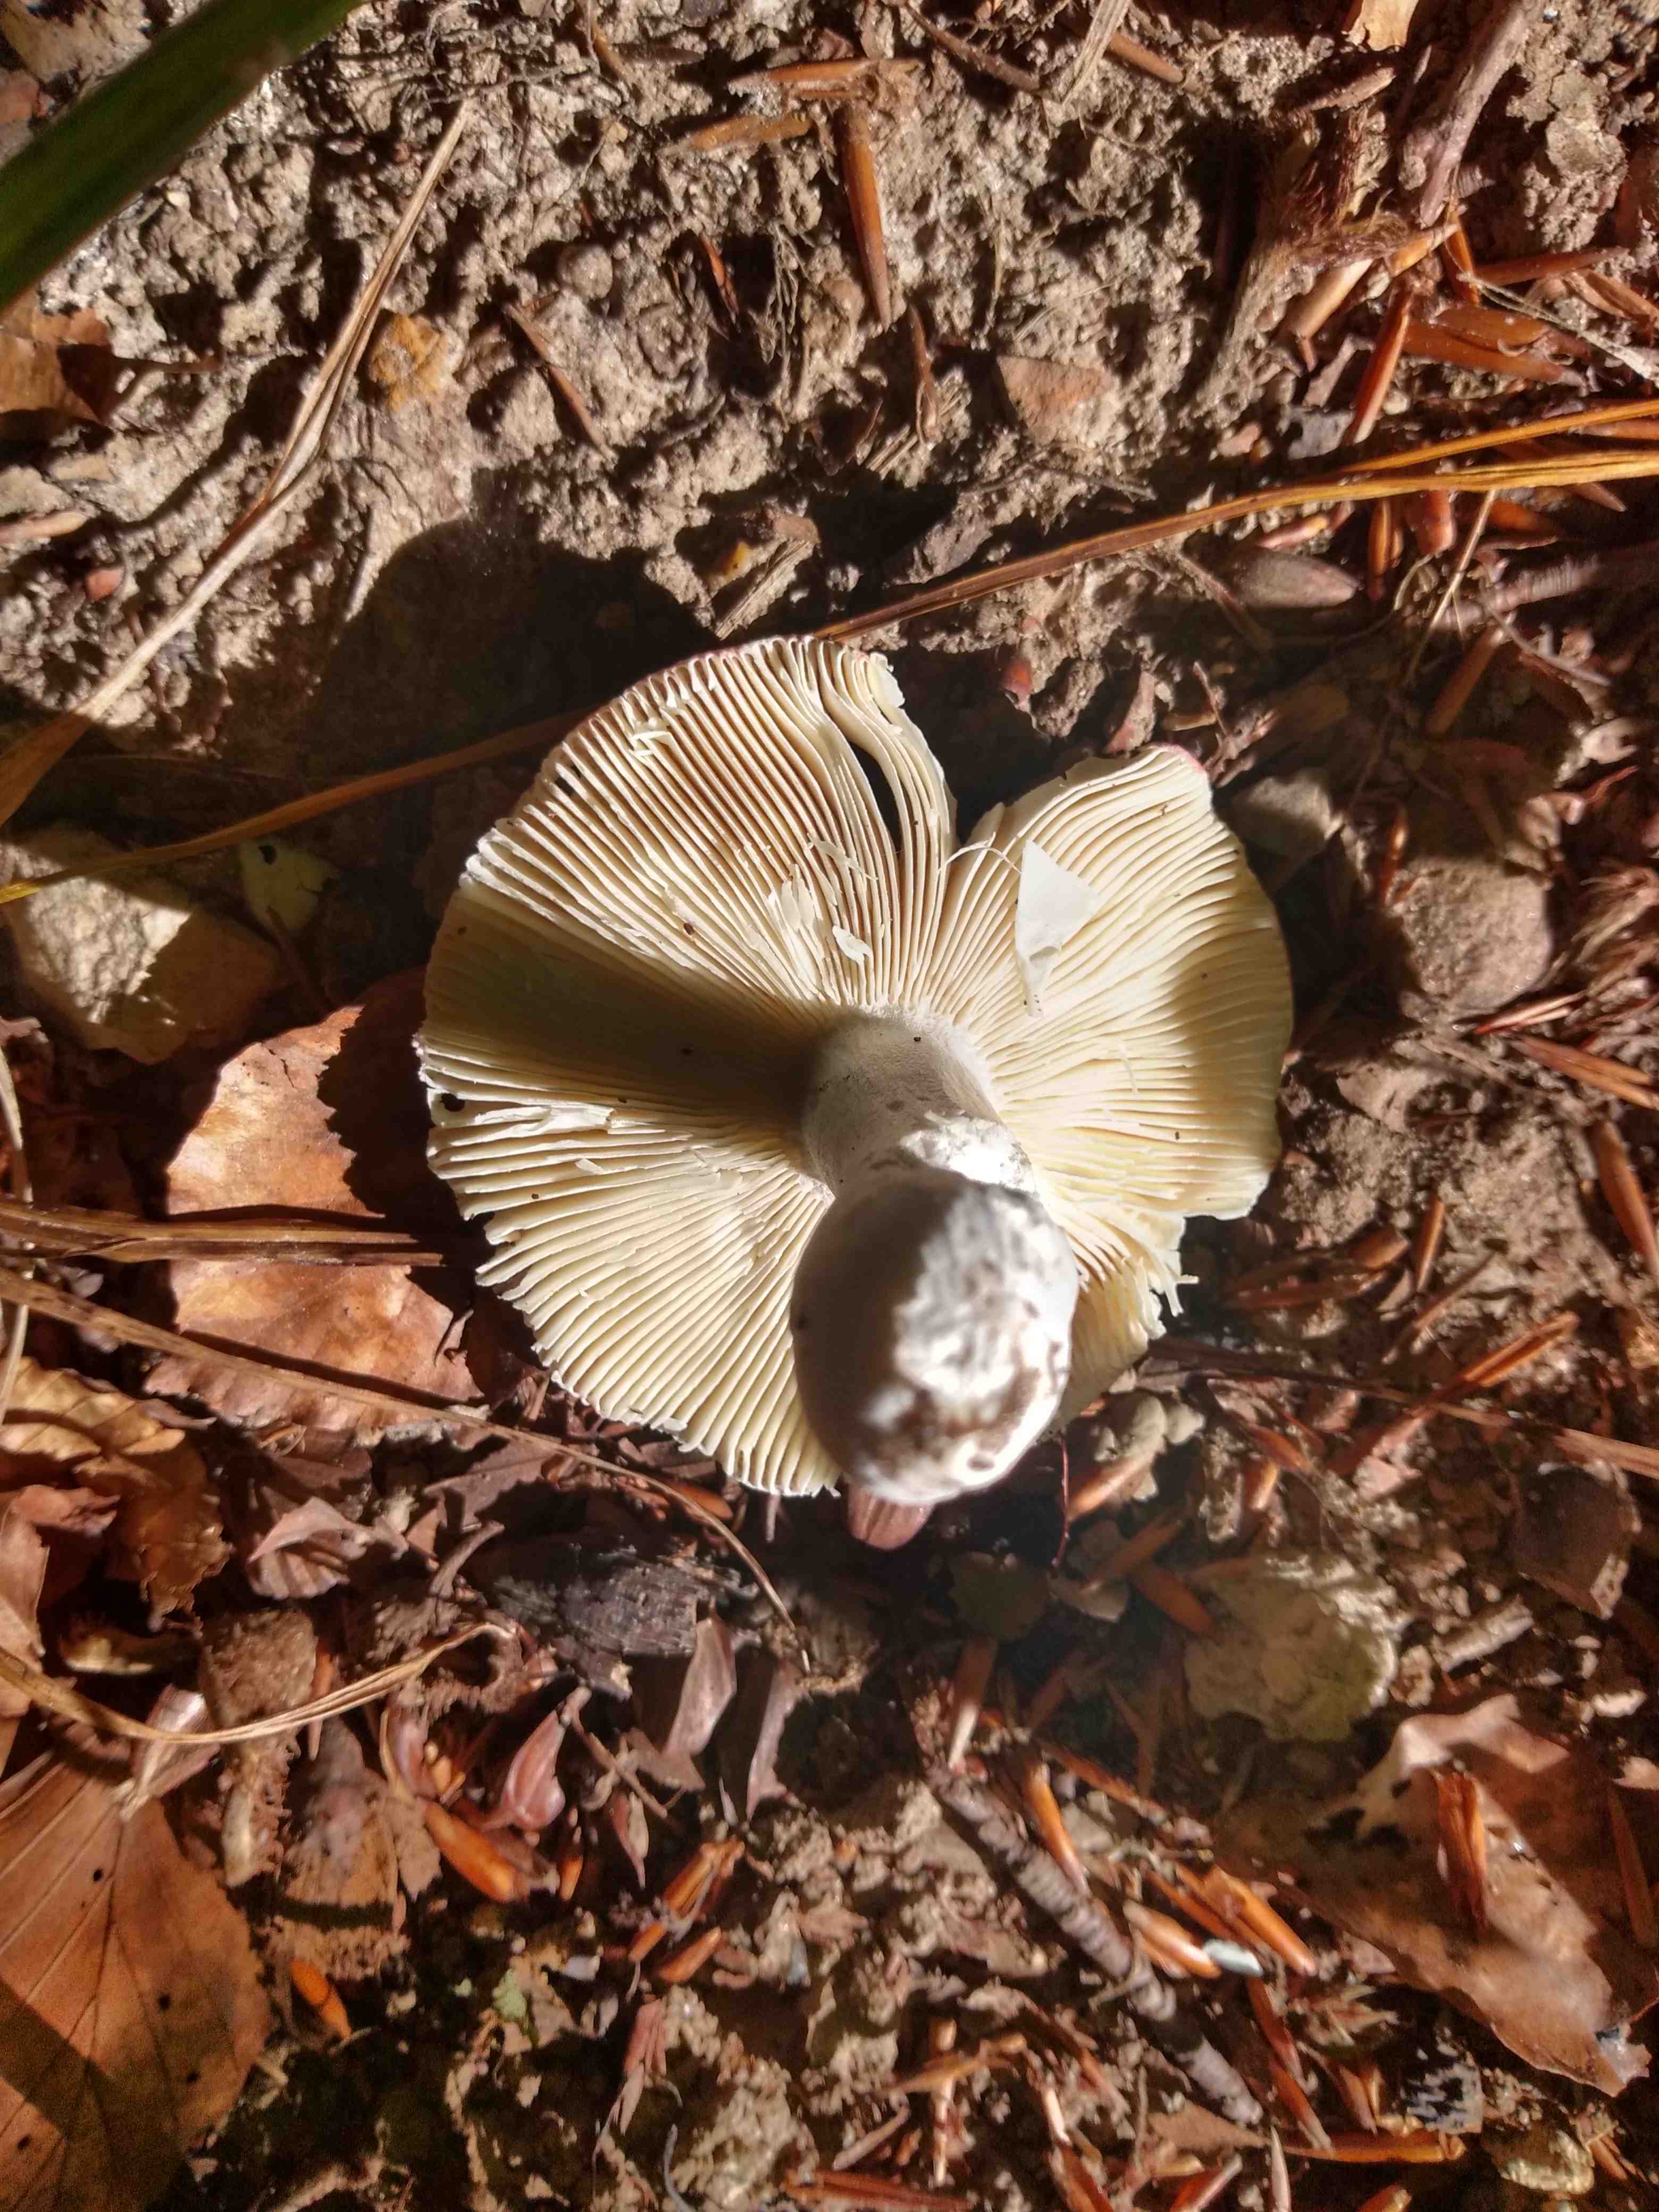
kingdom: Fungi
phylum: Basidiomycota
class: Agaricomycetes
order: Russulales
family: Russulaceae
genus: Russula
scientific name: Russula
